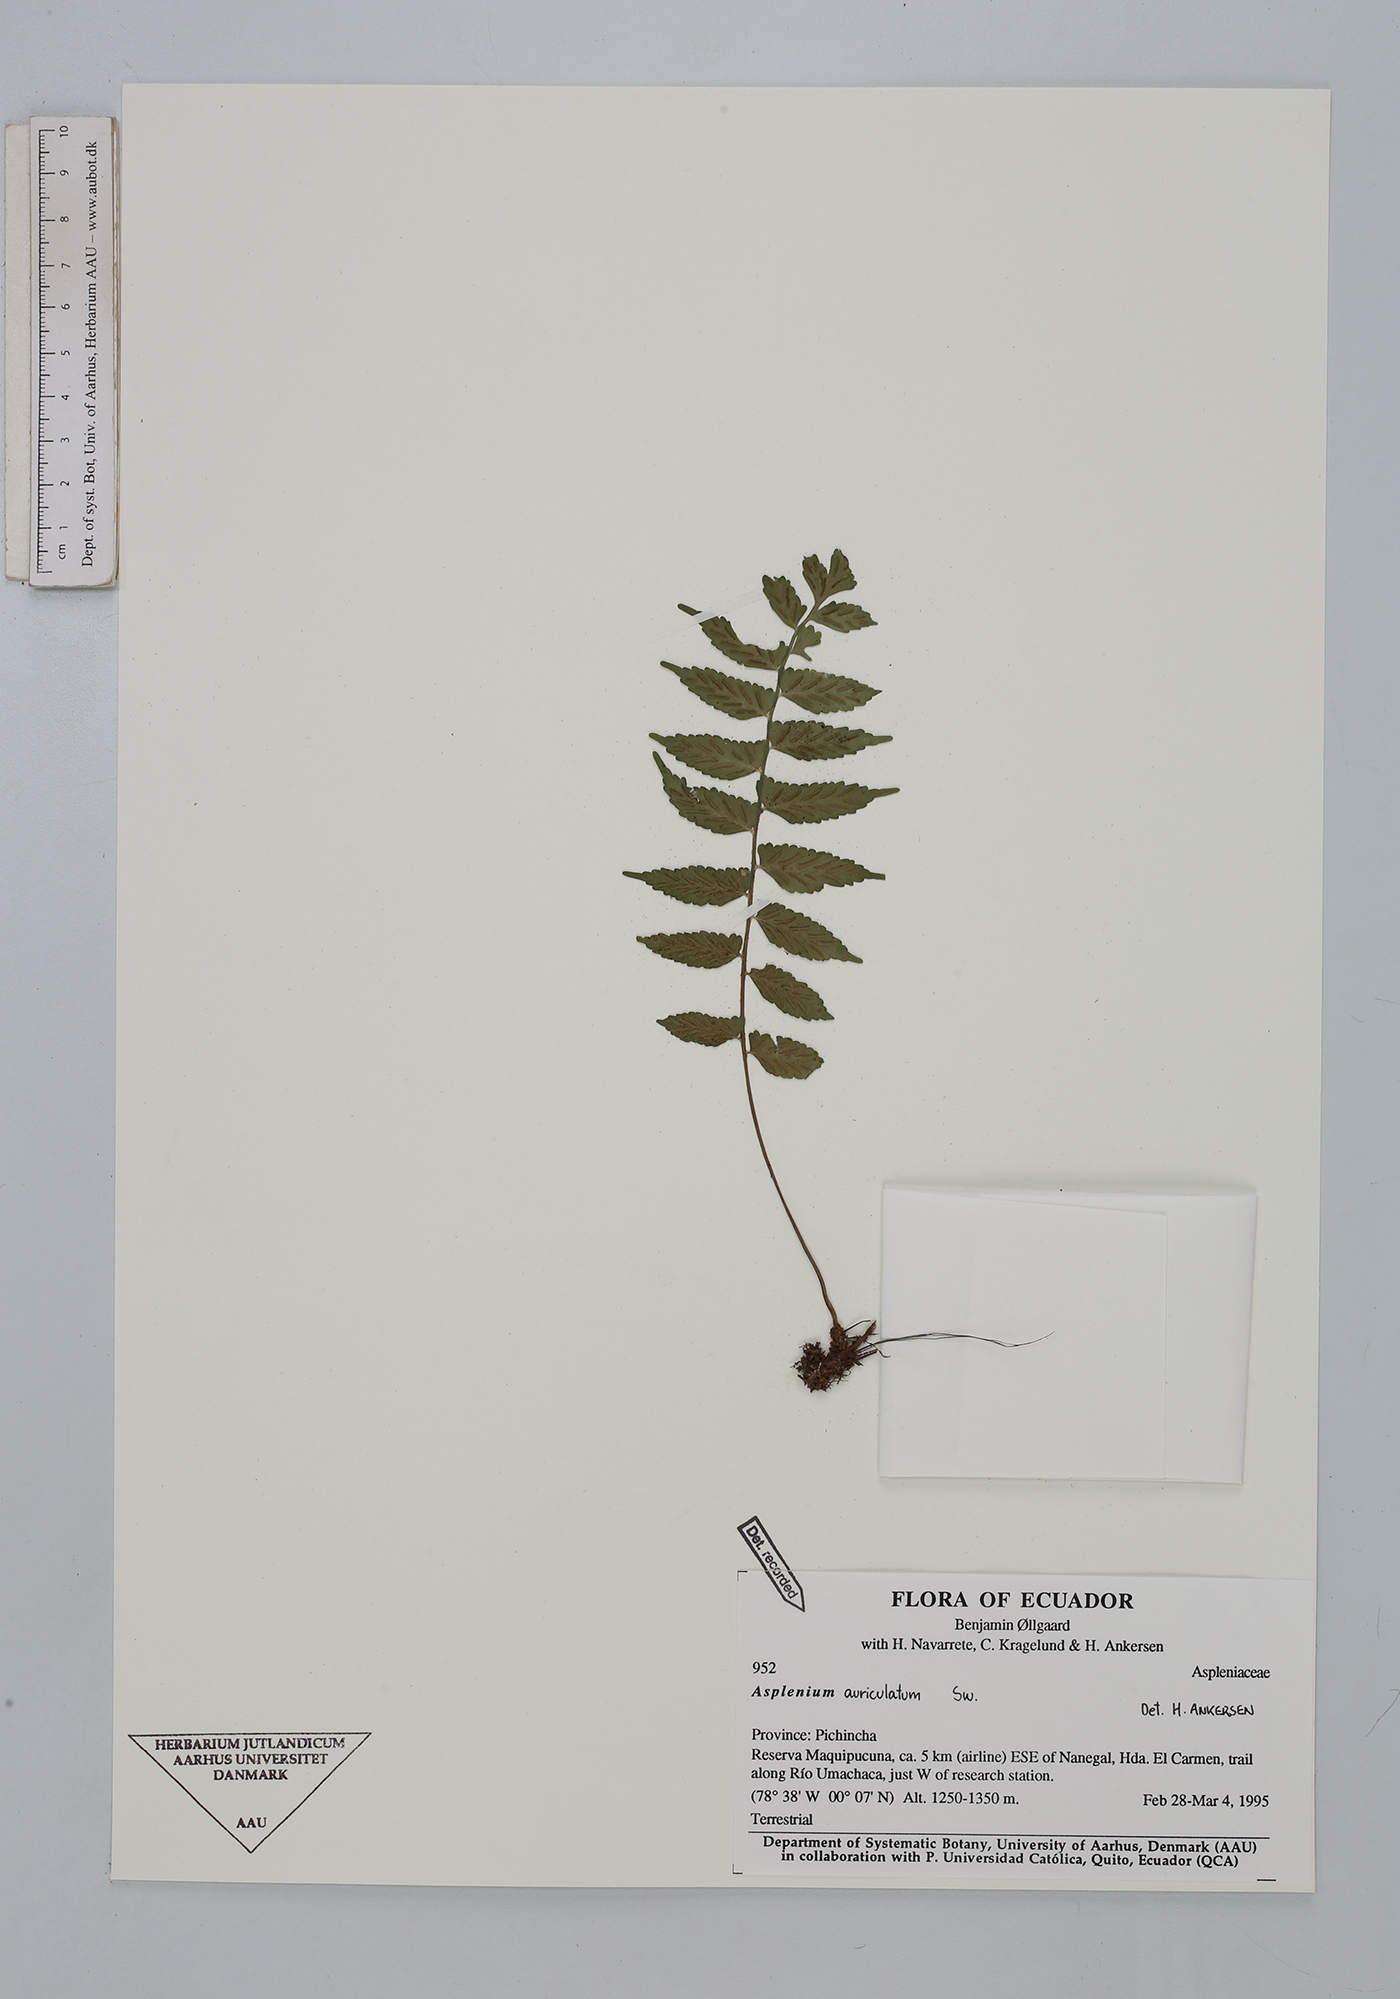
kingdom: Plantae
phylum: Tracheophyta
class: Polypodiopsida
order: Polypodiales
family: Aspleniaceae
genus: Asplenium
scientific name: Asplenium auriculatum
